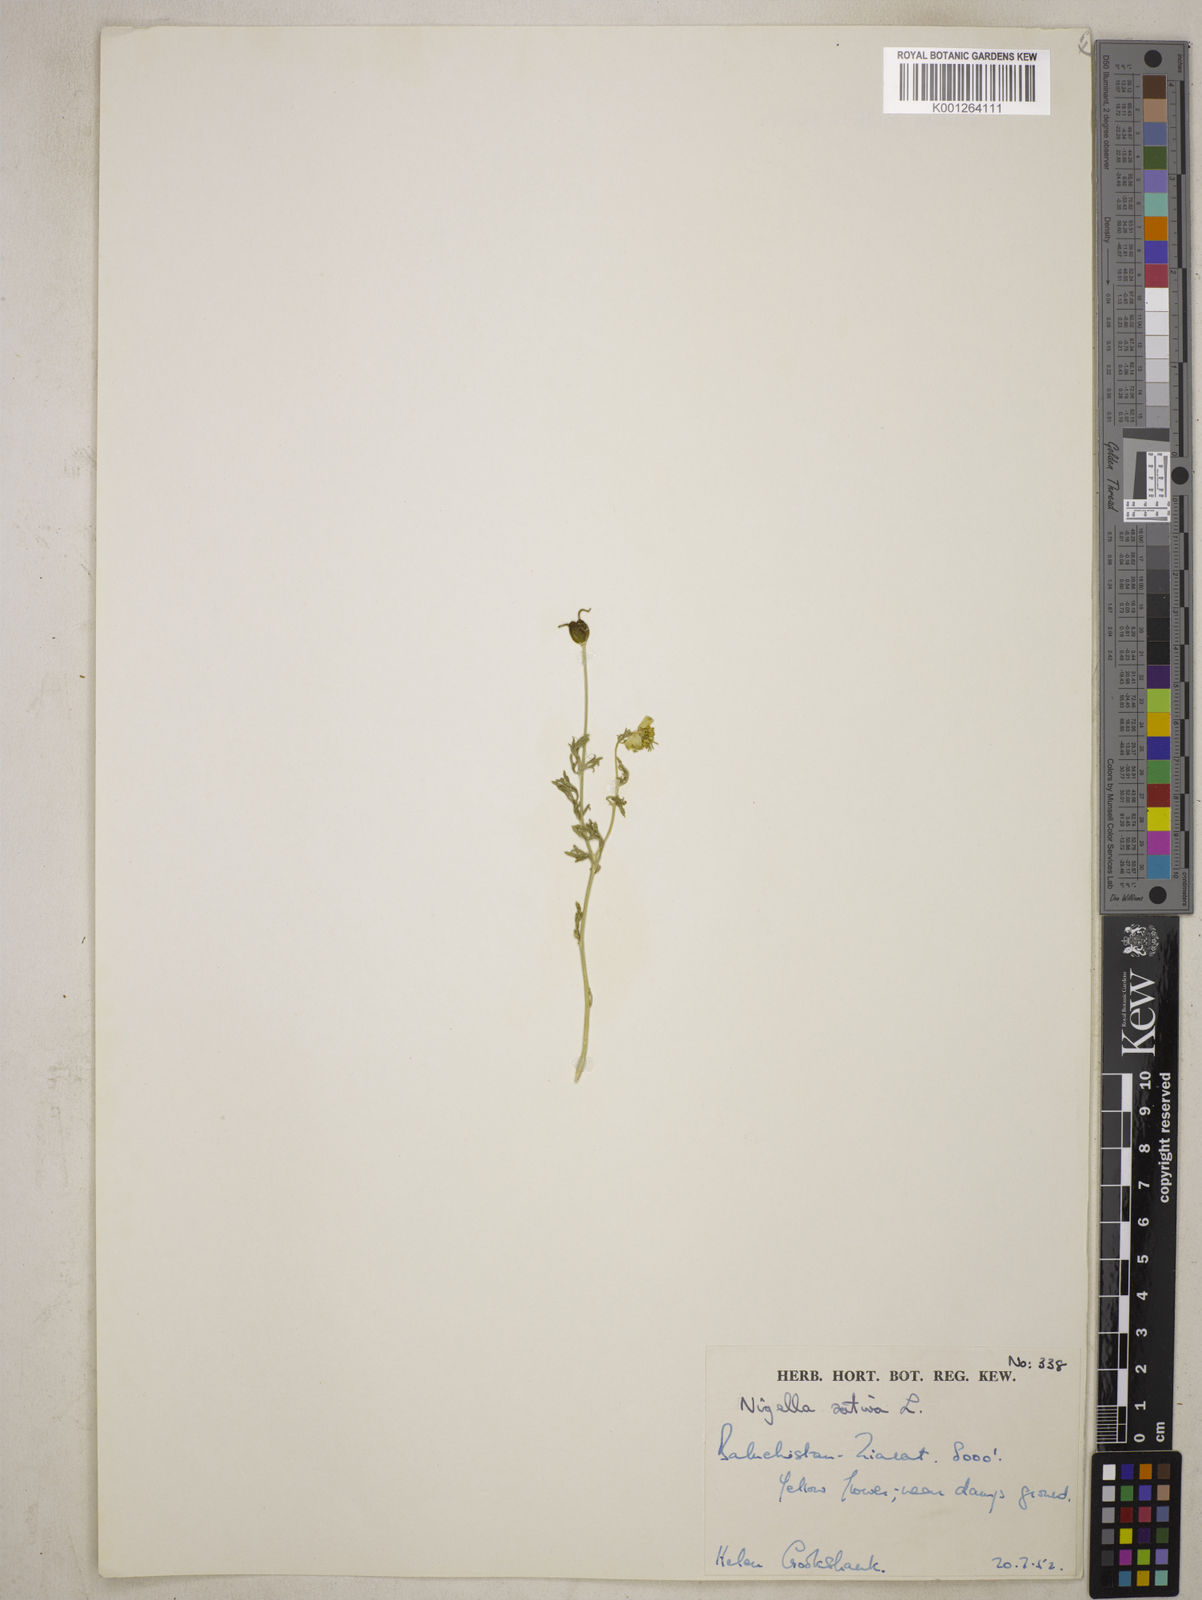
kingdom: Plantae
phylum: Tracheophyta
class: Magnoliopsida
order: Ranunculales
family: Ranunculaceae
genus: Nigella
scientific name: Nigella sativa
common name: Black-cumin
